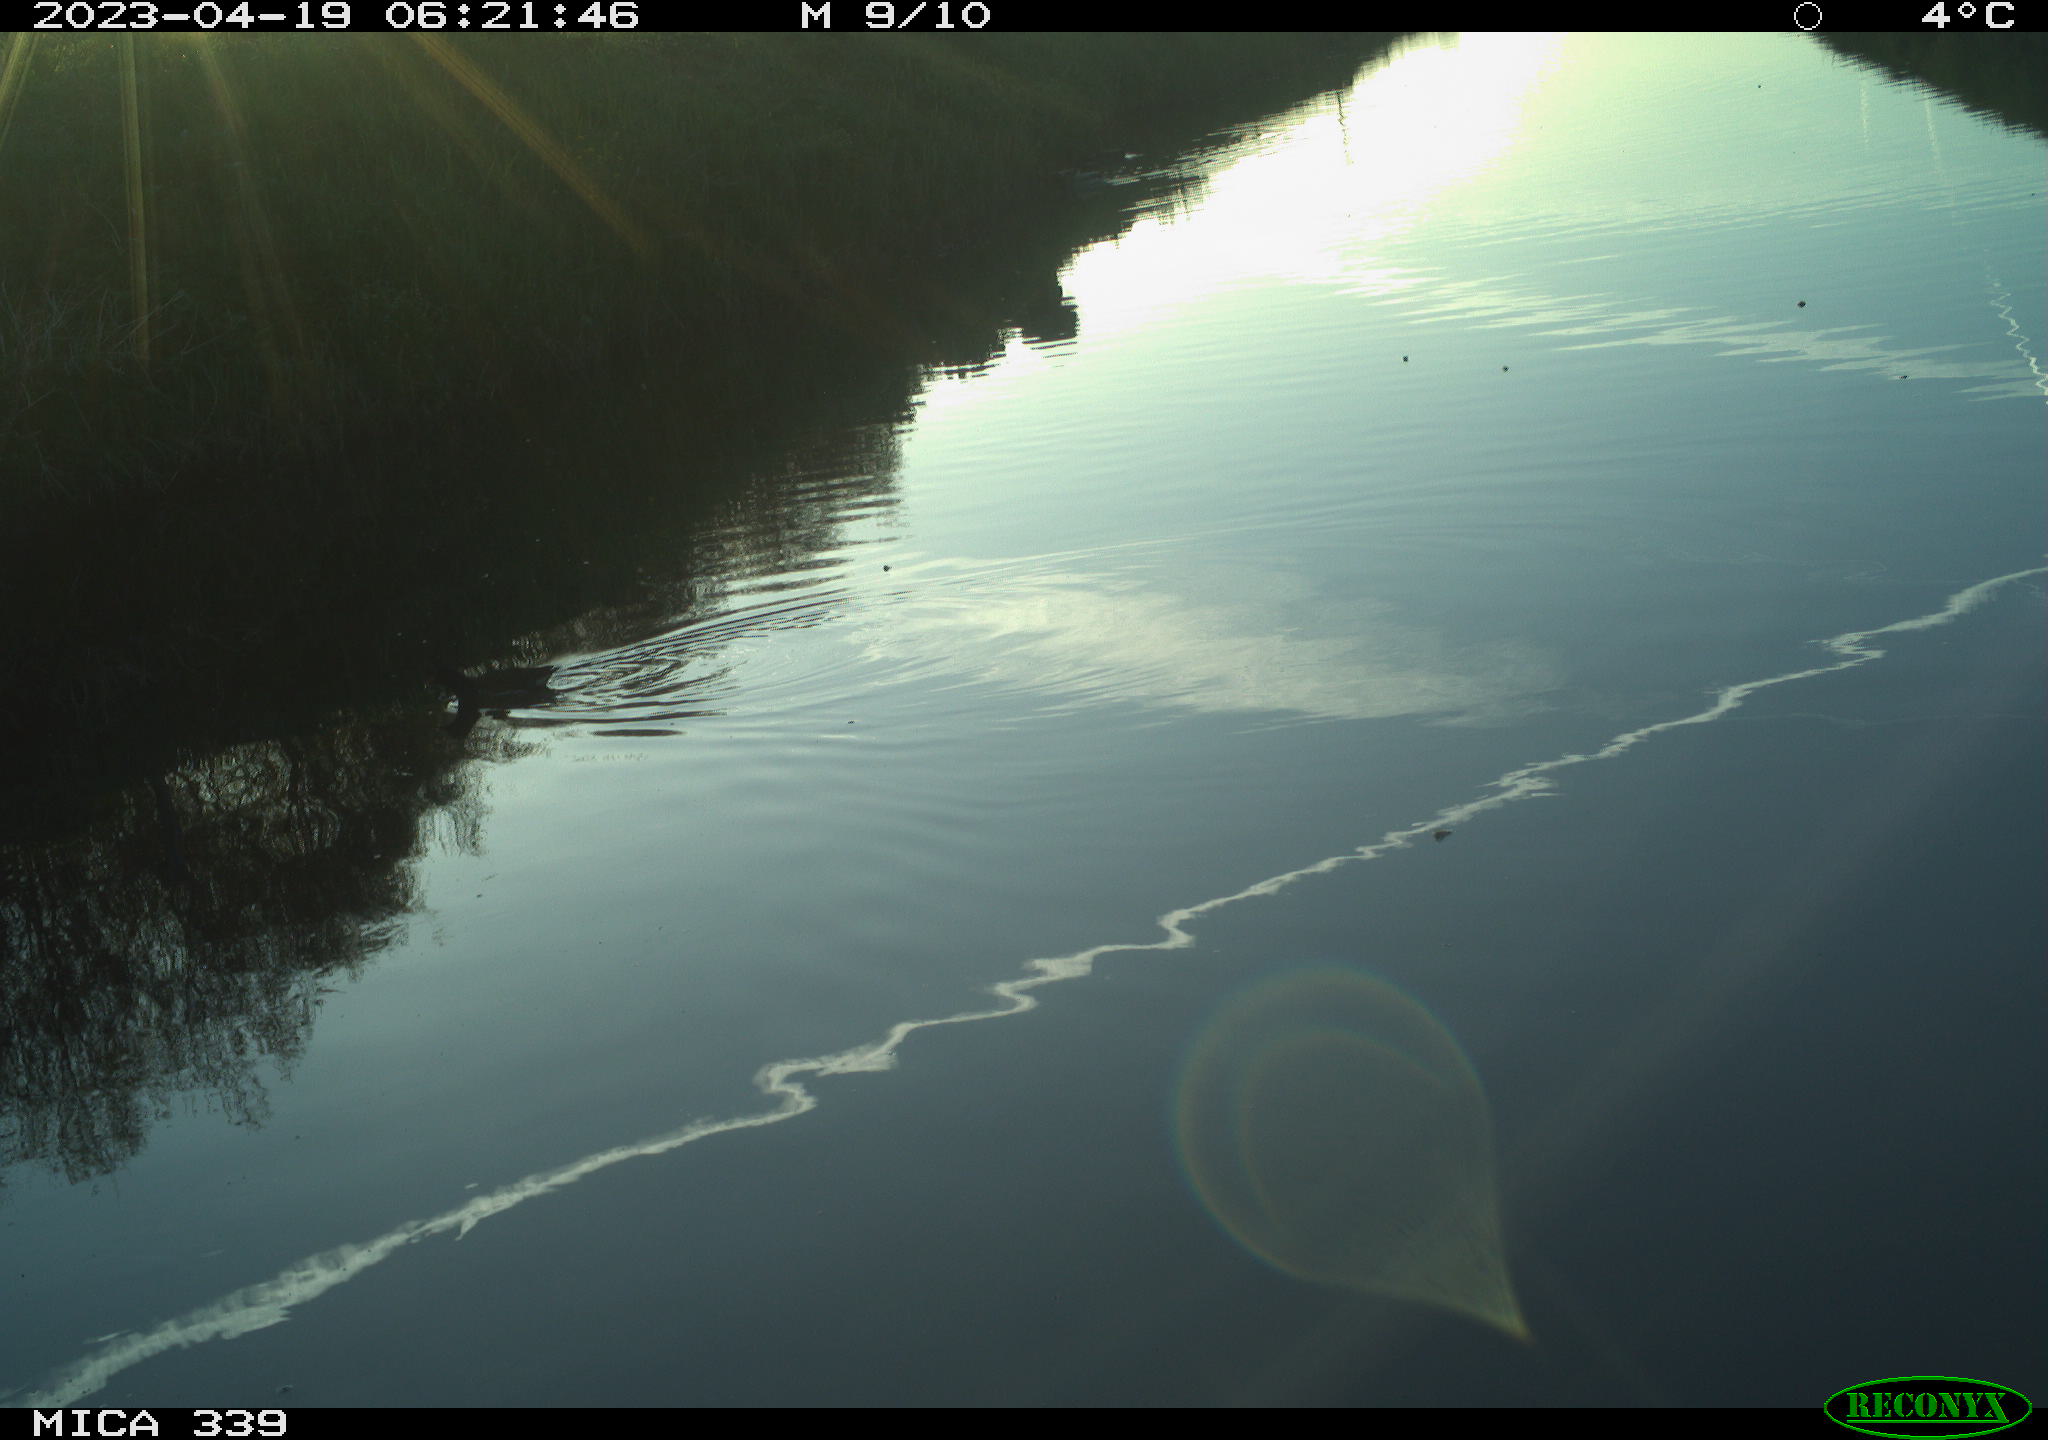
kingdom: Animalia
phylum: Chordata
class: Aves
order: Anseriformes
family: Anatidae
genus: Anas
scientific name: Anas
